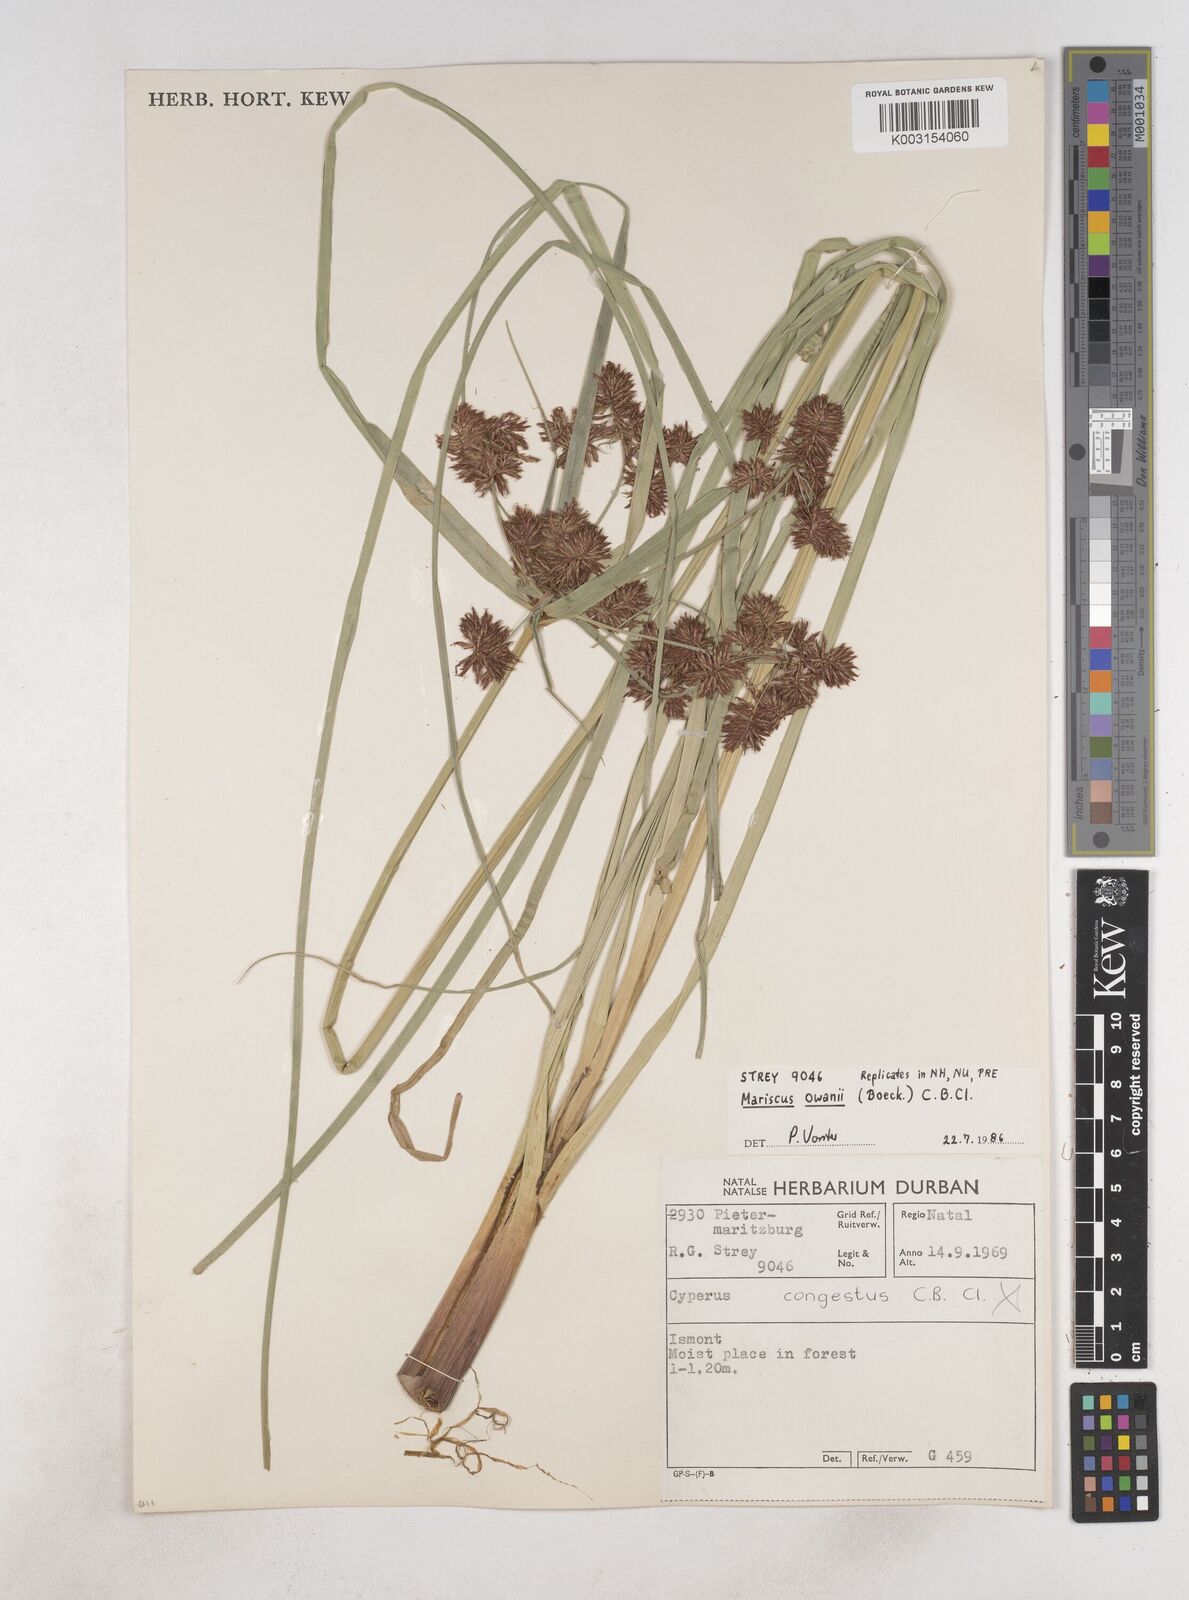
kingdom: Plantae
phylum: Tracheophyta
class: Liliopsida
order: Poales
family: Cyperaceae
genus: Cyperus
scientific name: Cyperus owanii
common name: Owan's flatsedge
